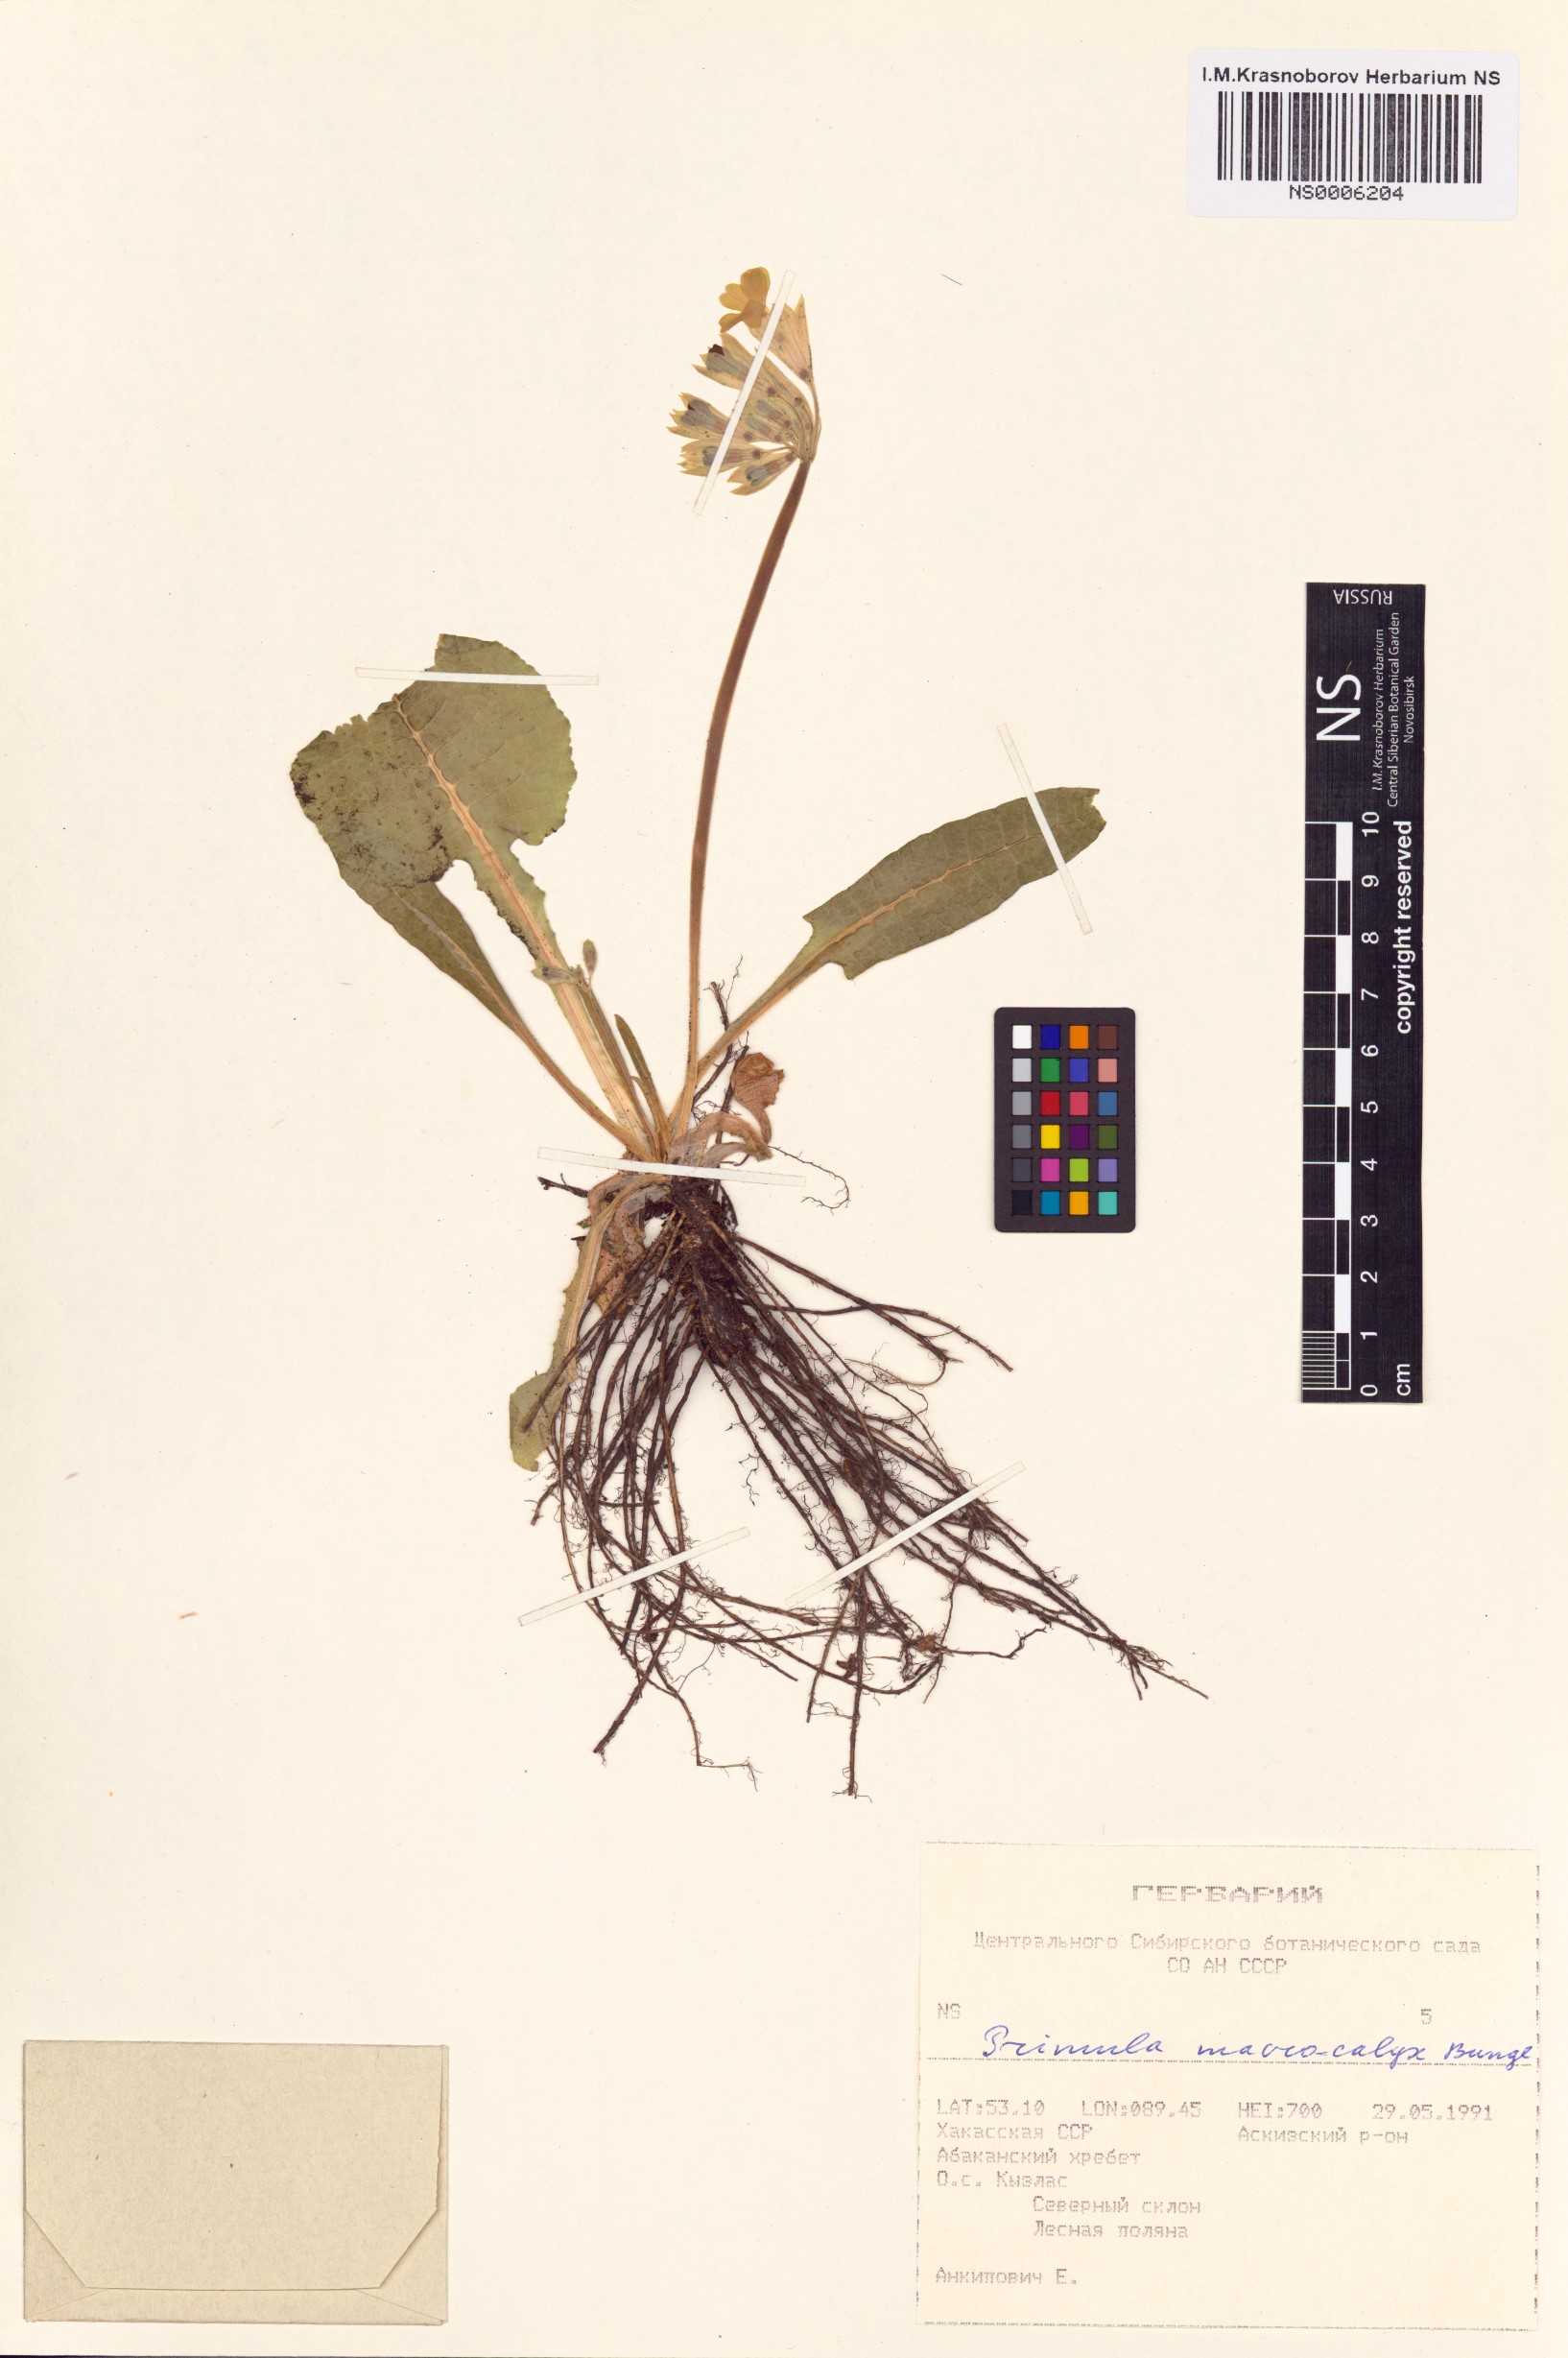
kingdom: Plantae
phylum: Tracheophyta
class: Magnoliopsida
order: Ericales
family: Primulaceae
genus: Primula
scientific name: Primula veris
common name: Cowslip
